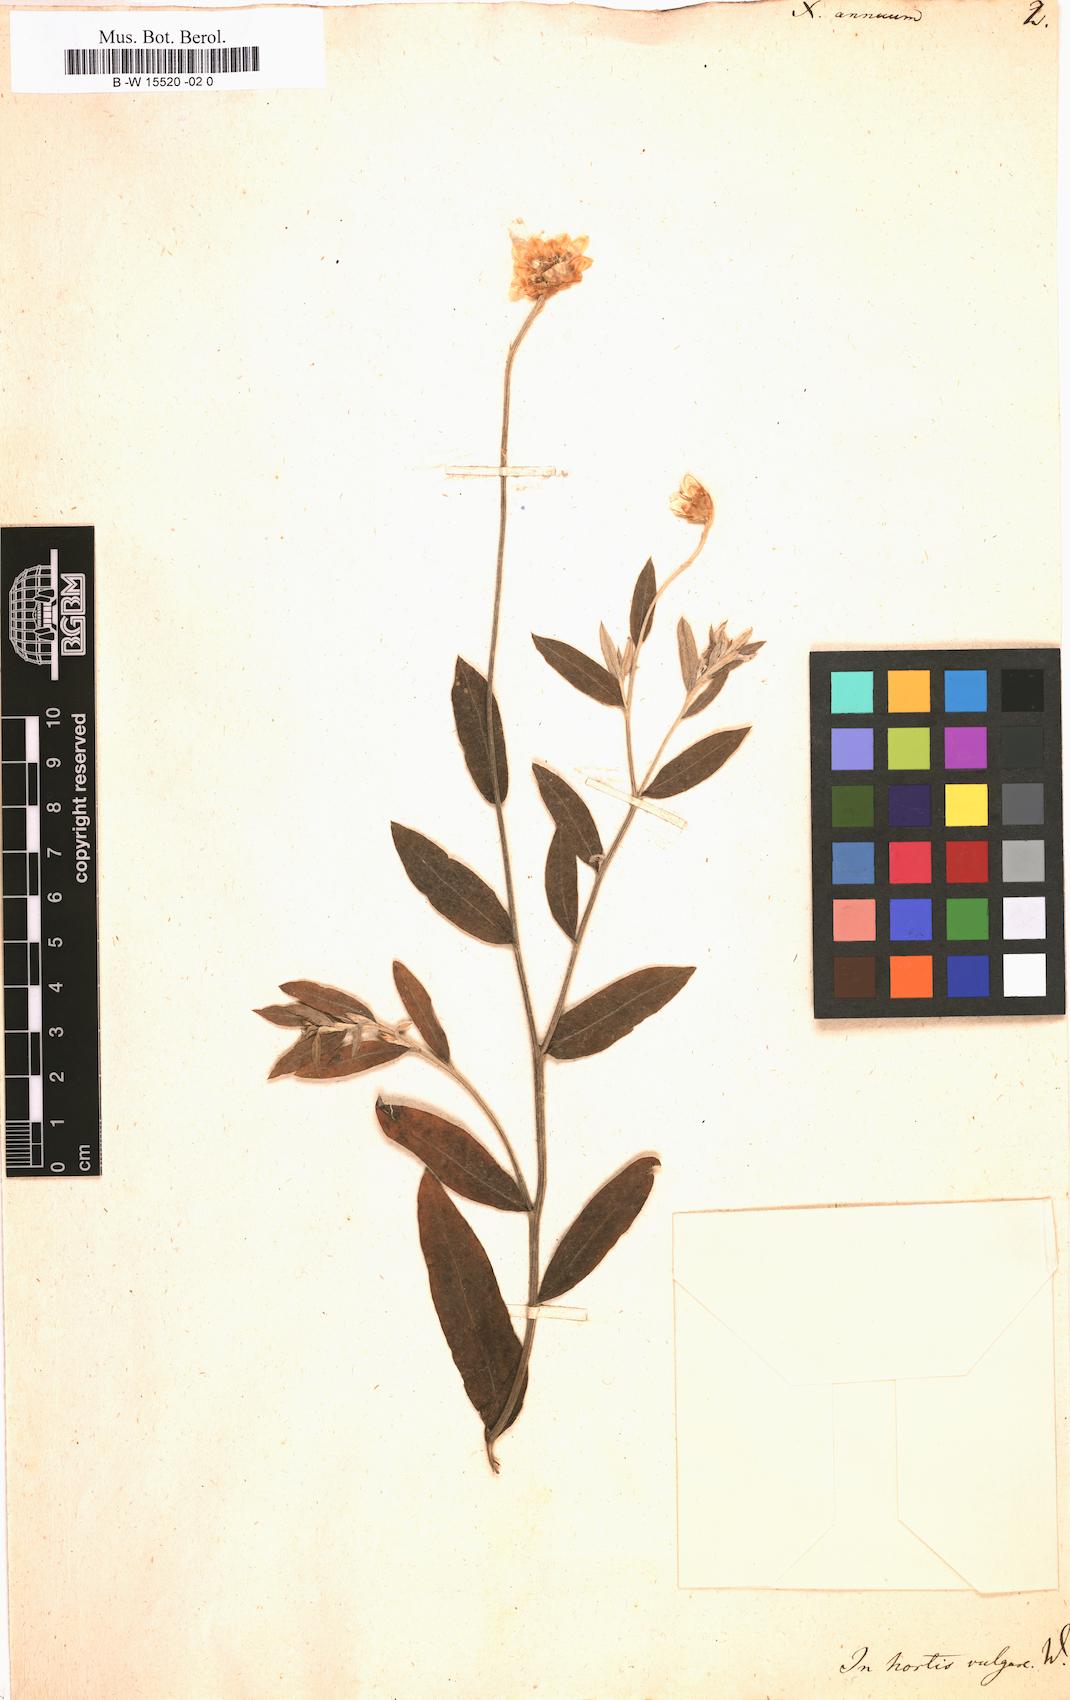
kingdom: Plantae
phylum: Tracheophyta
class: Magnoliopsida
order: Asterales
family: Asteraceae
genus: Xeranthemum
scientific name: Xeranthemum annuum
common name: Immortelle
